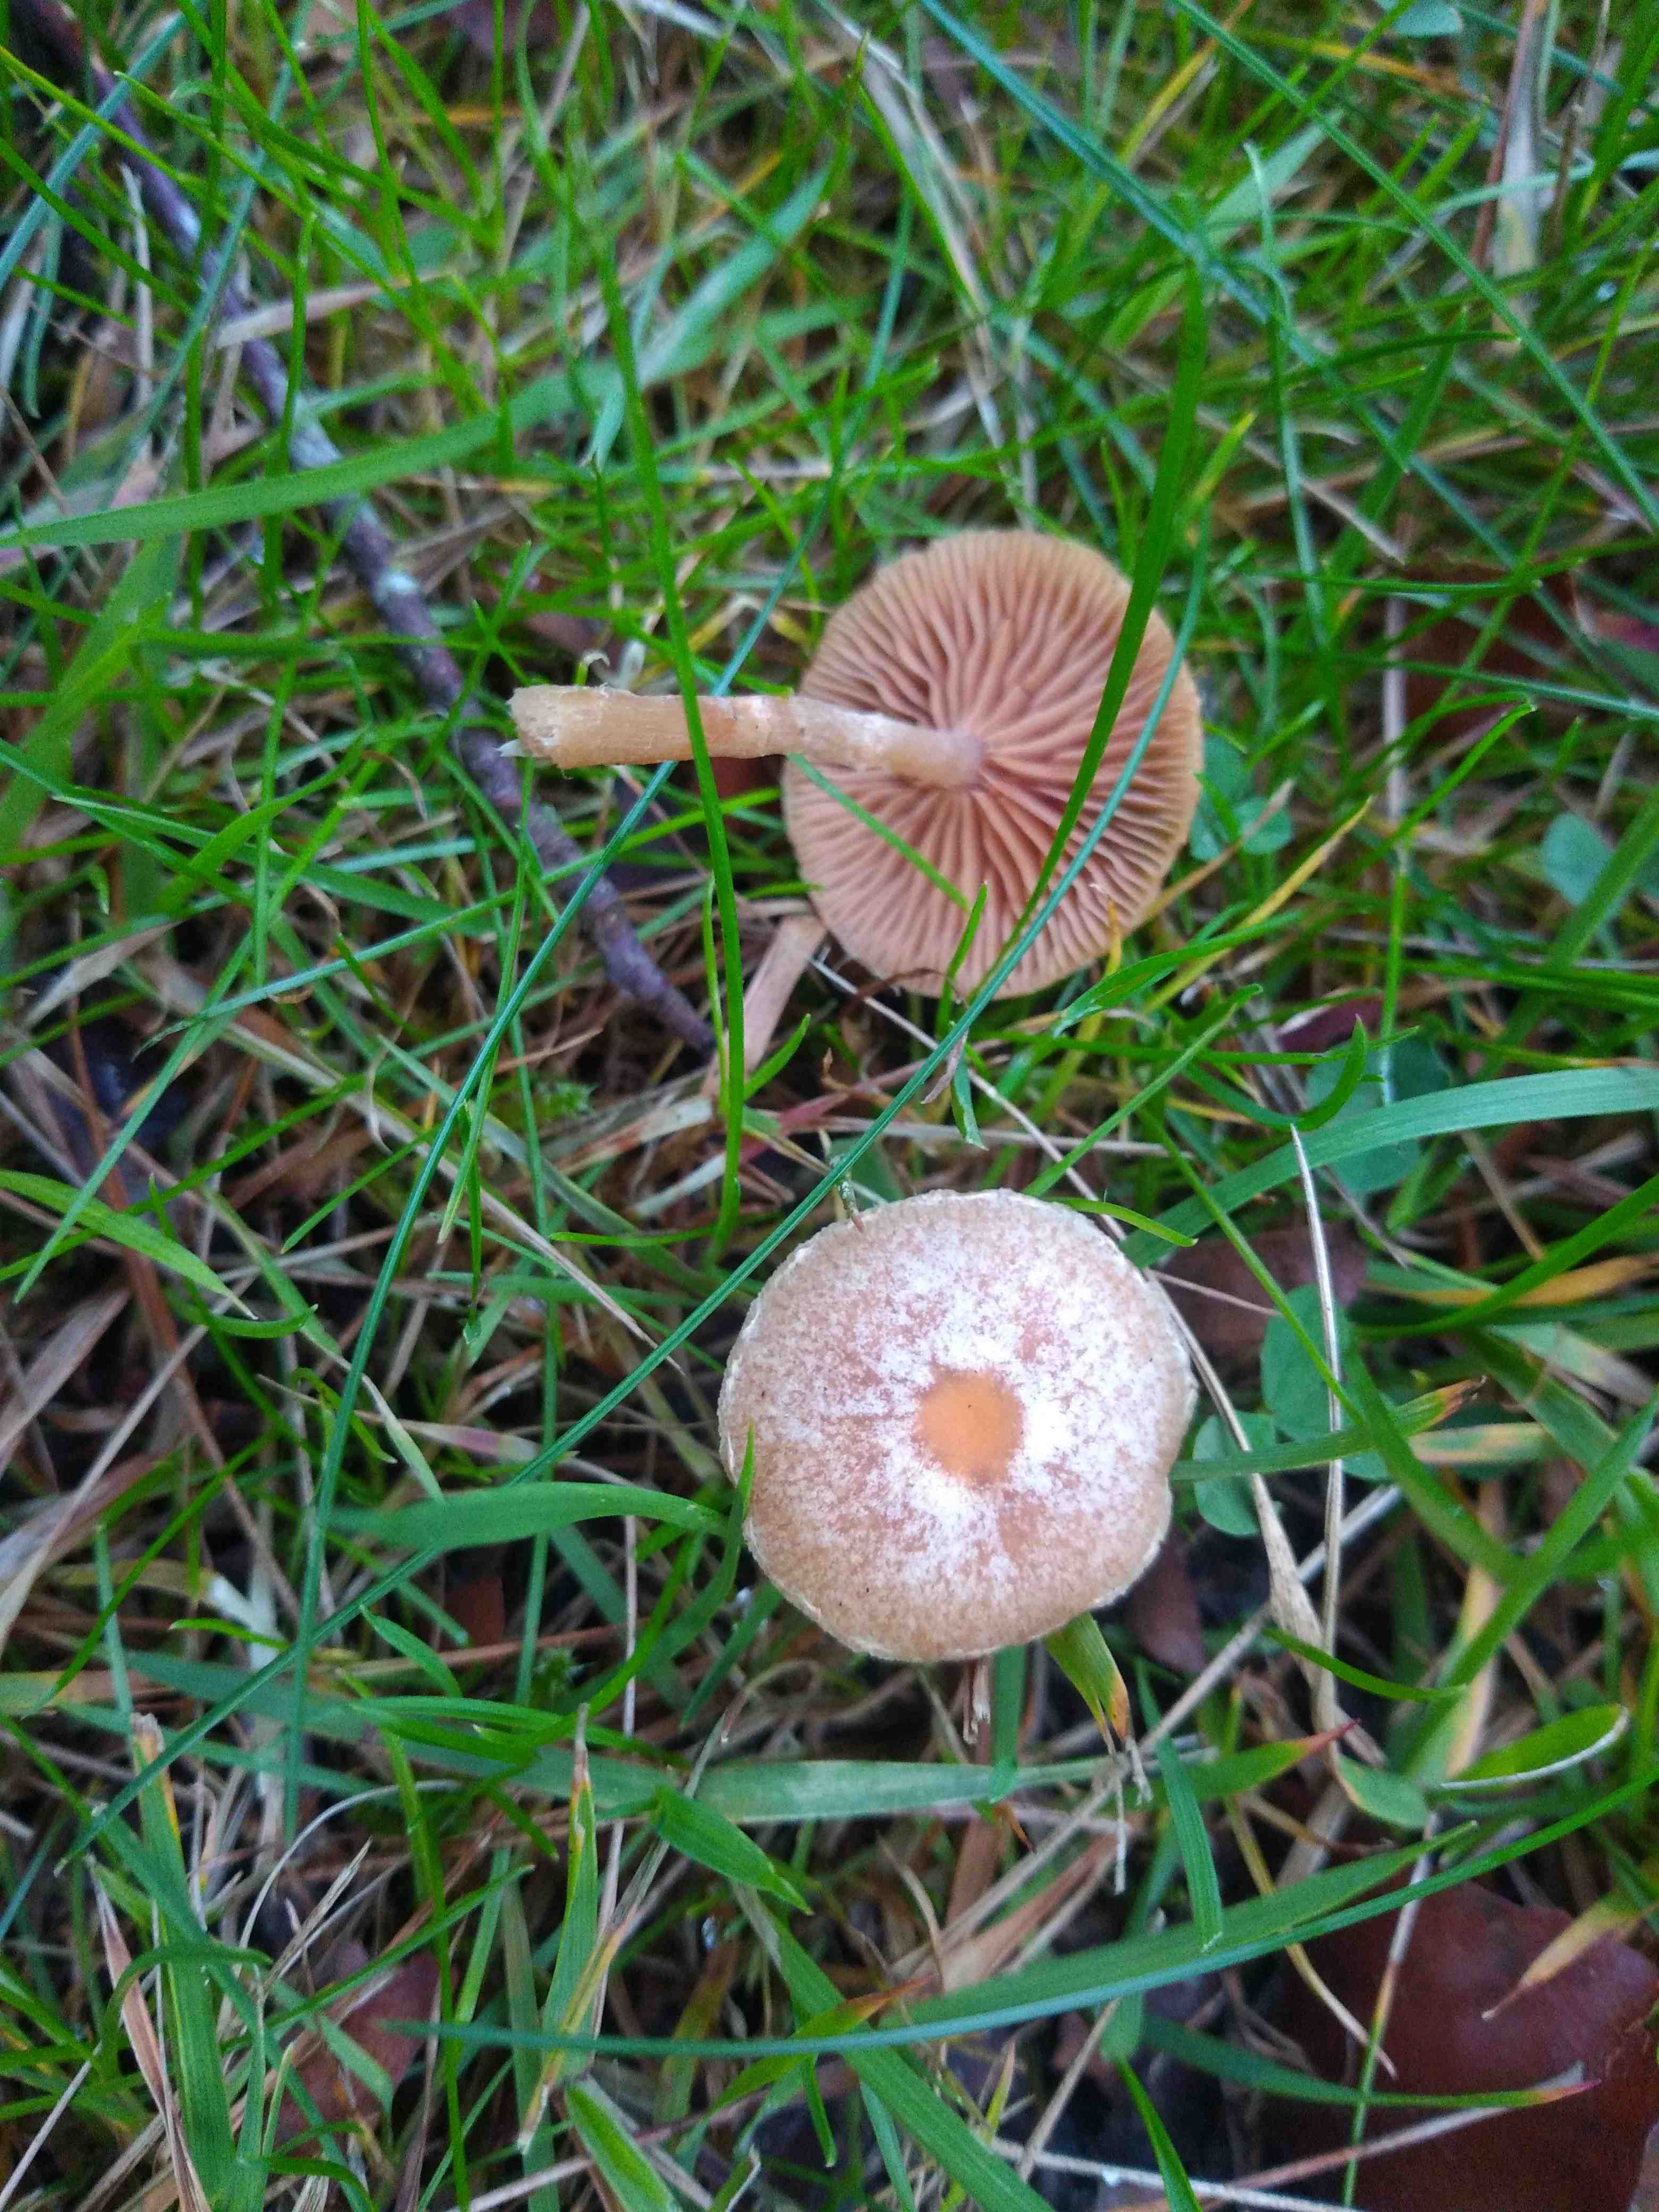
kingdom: Fungi
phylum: Basidiomycota
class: Agaricomycetes
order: Agaricales
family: Tubariaceae
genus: Tubaria
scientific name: Tubaria
